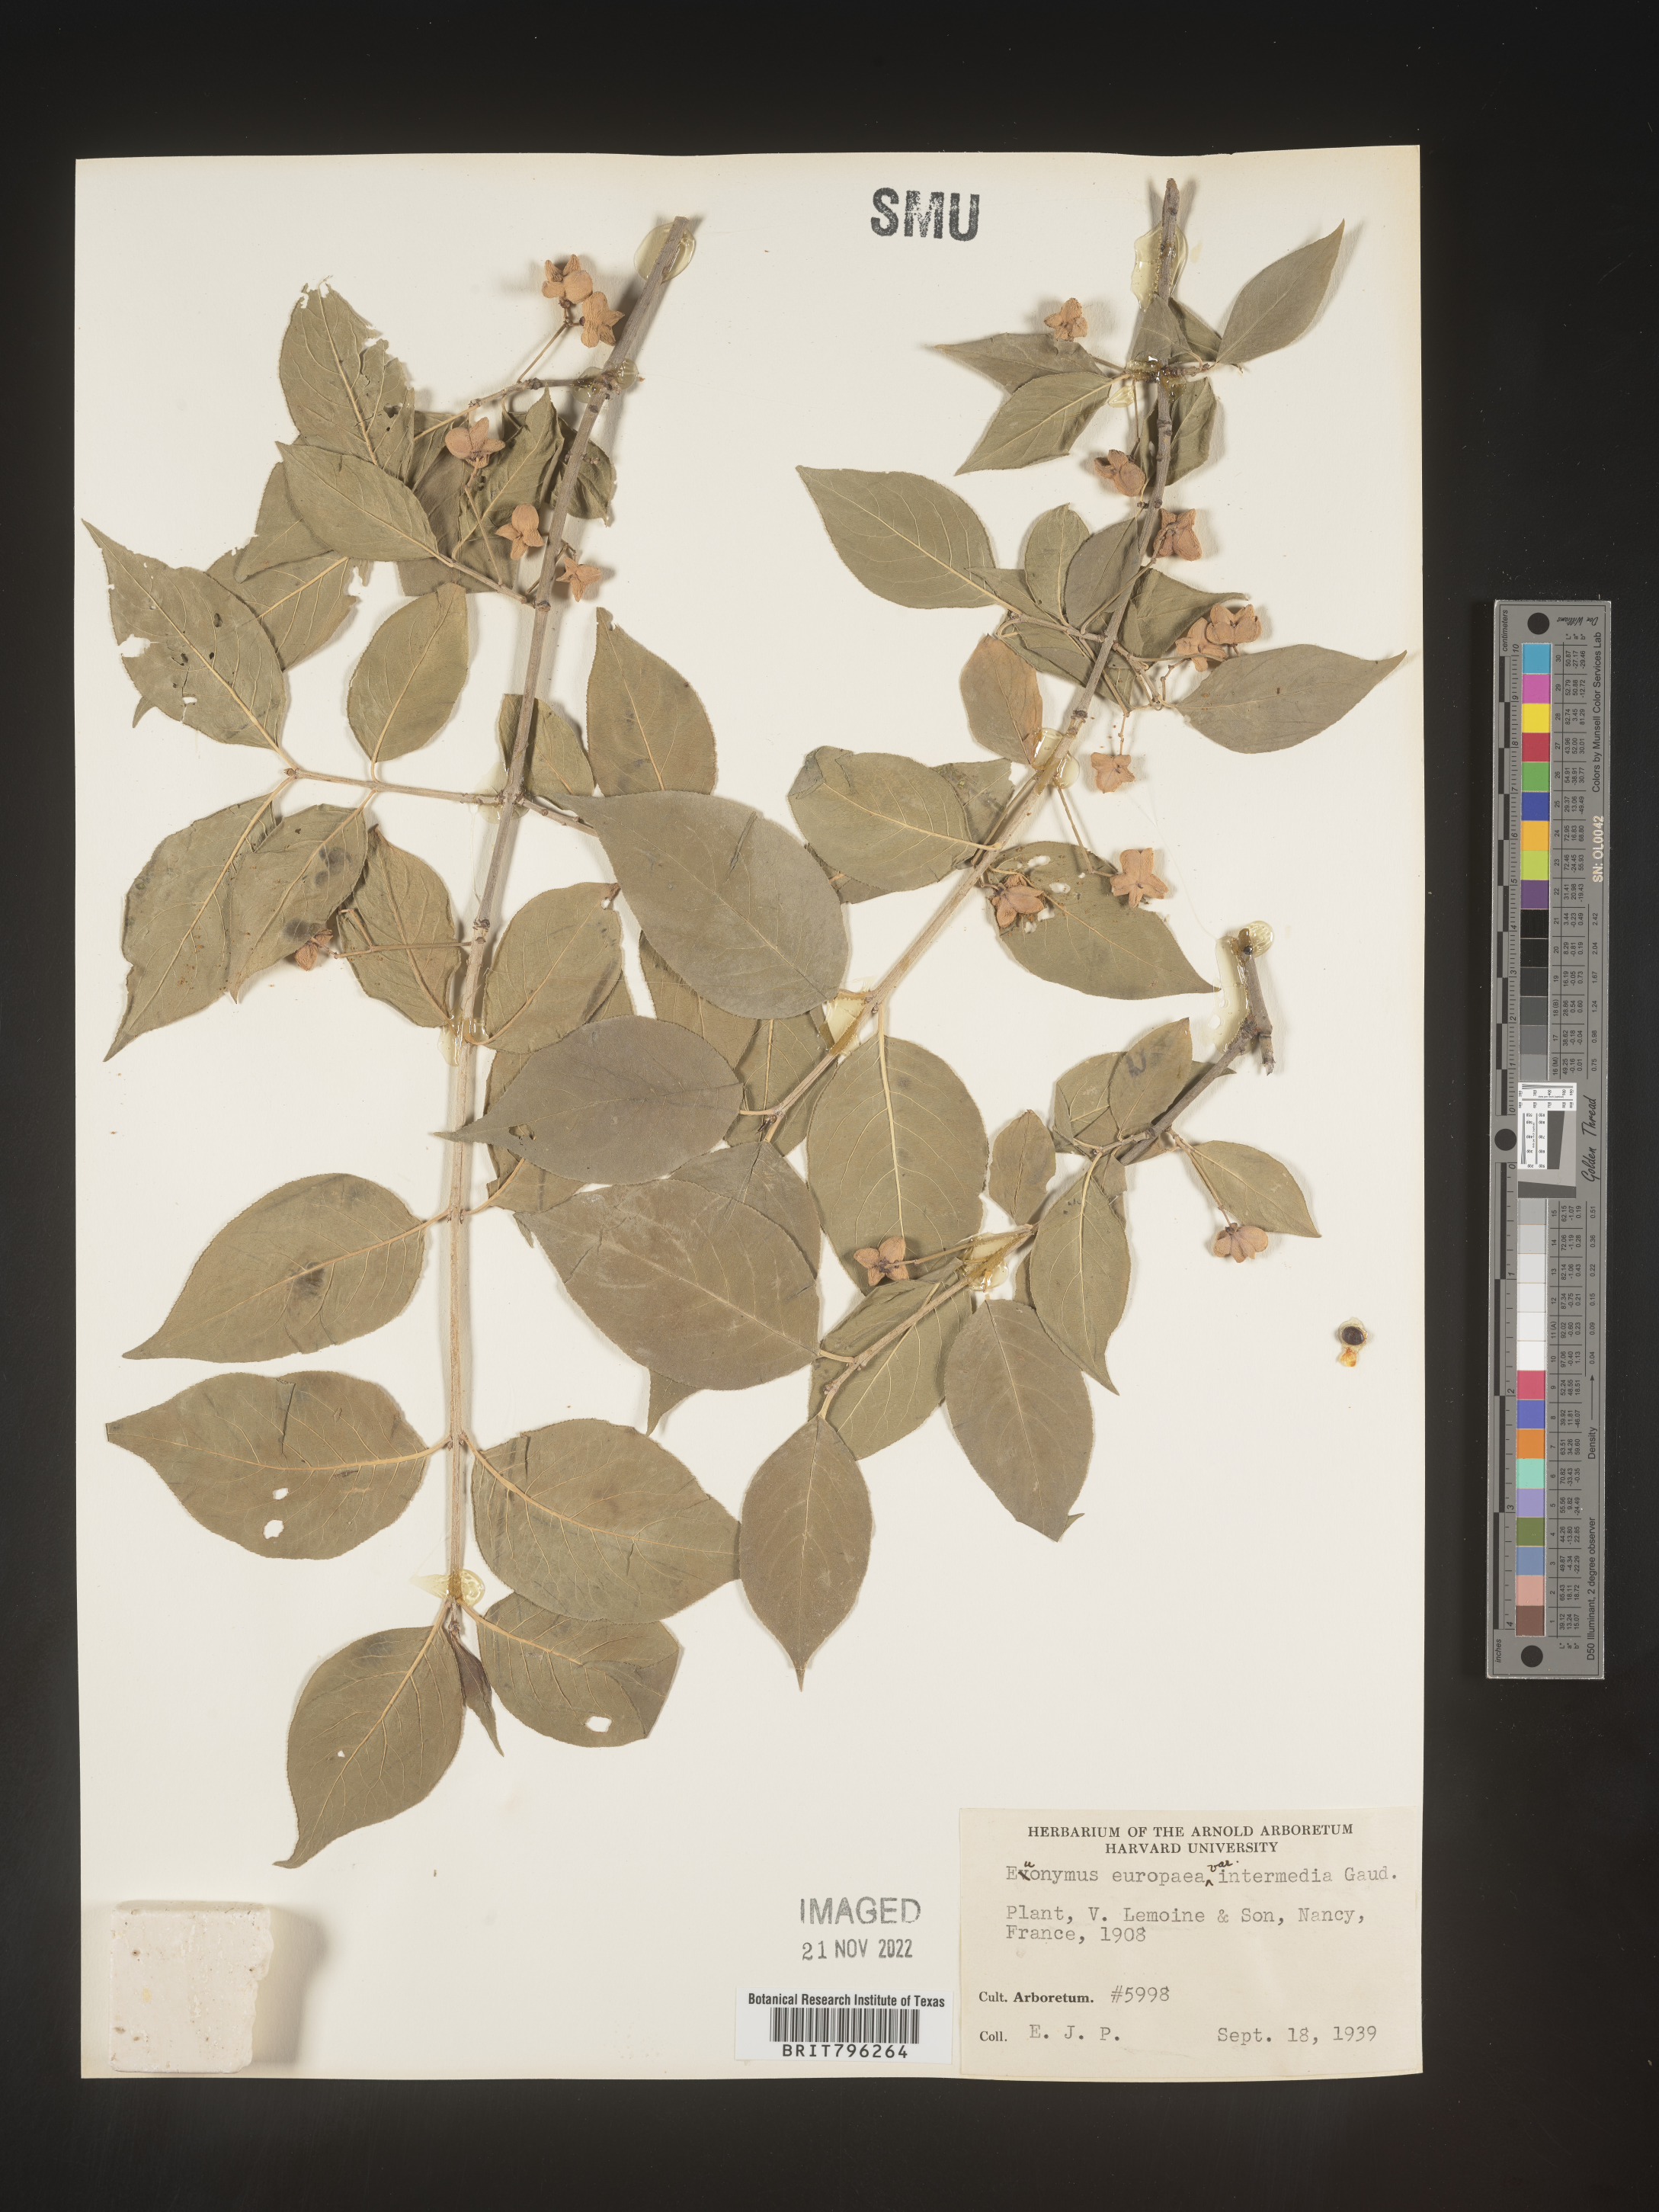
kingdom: Plantae
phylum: Tracheophyta
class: Magnoliopsida
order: Celastrales
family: Celastraceae
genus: Euonymus
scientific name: Euonymus europaeus
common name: Spindle
